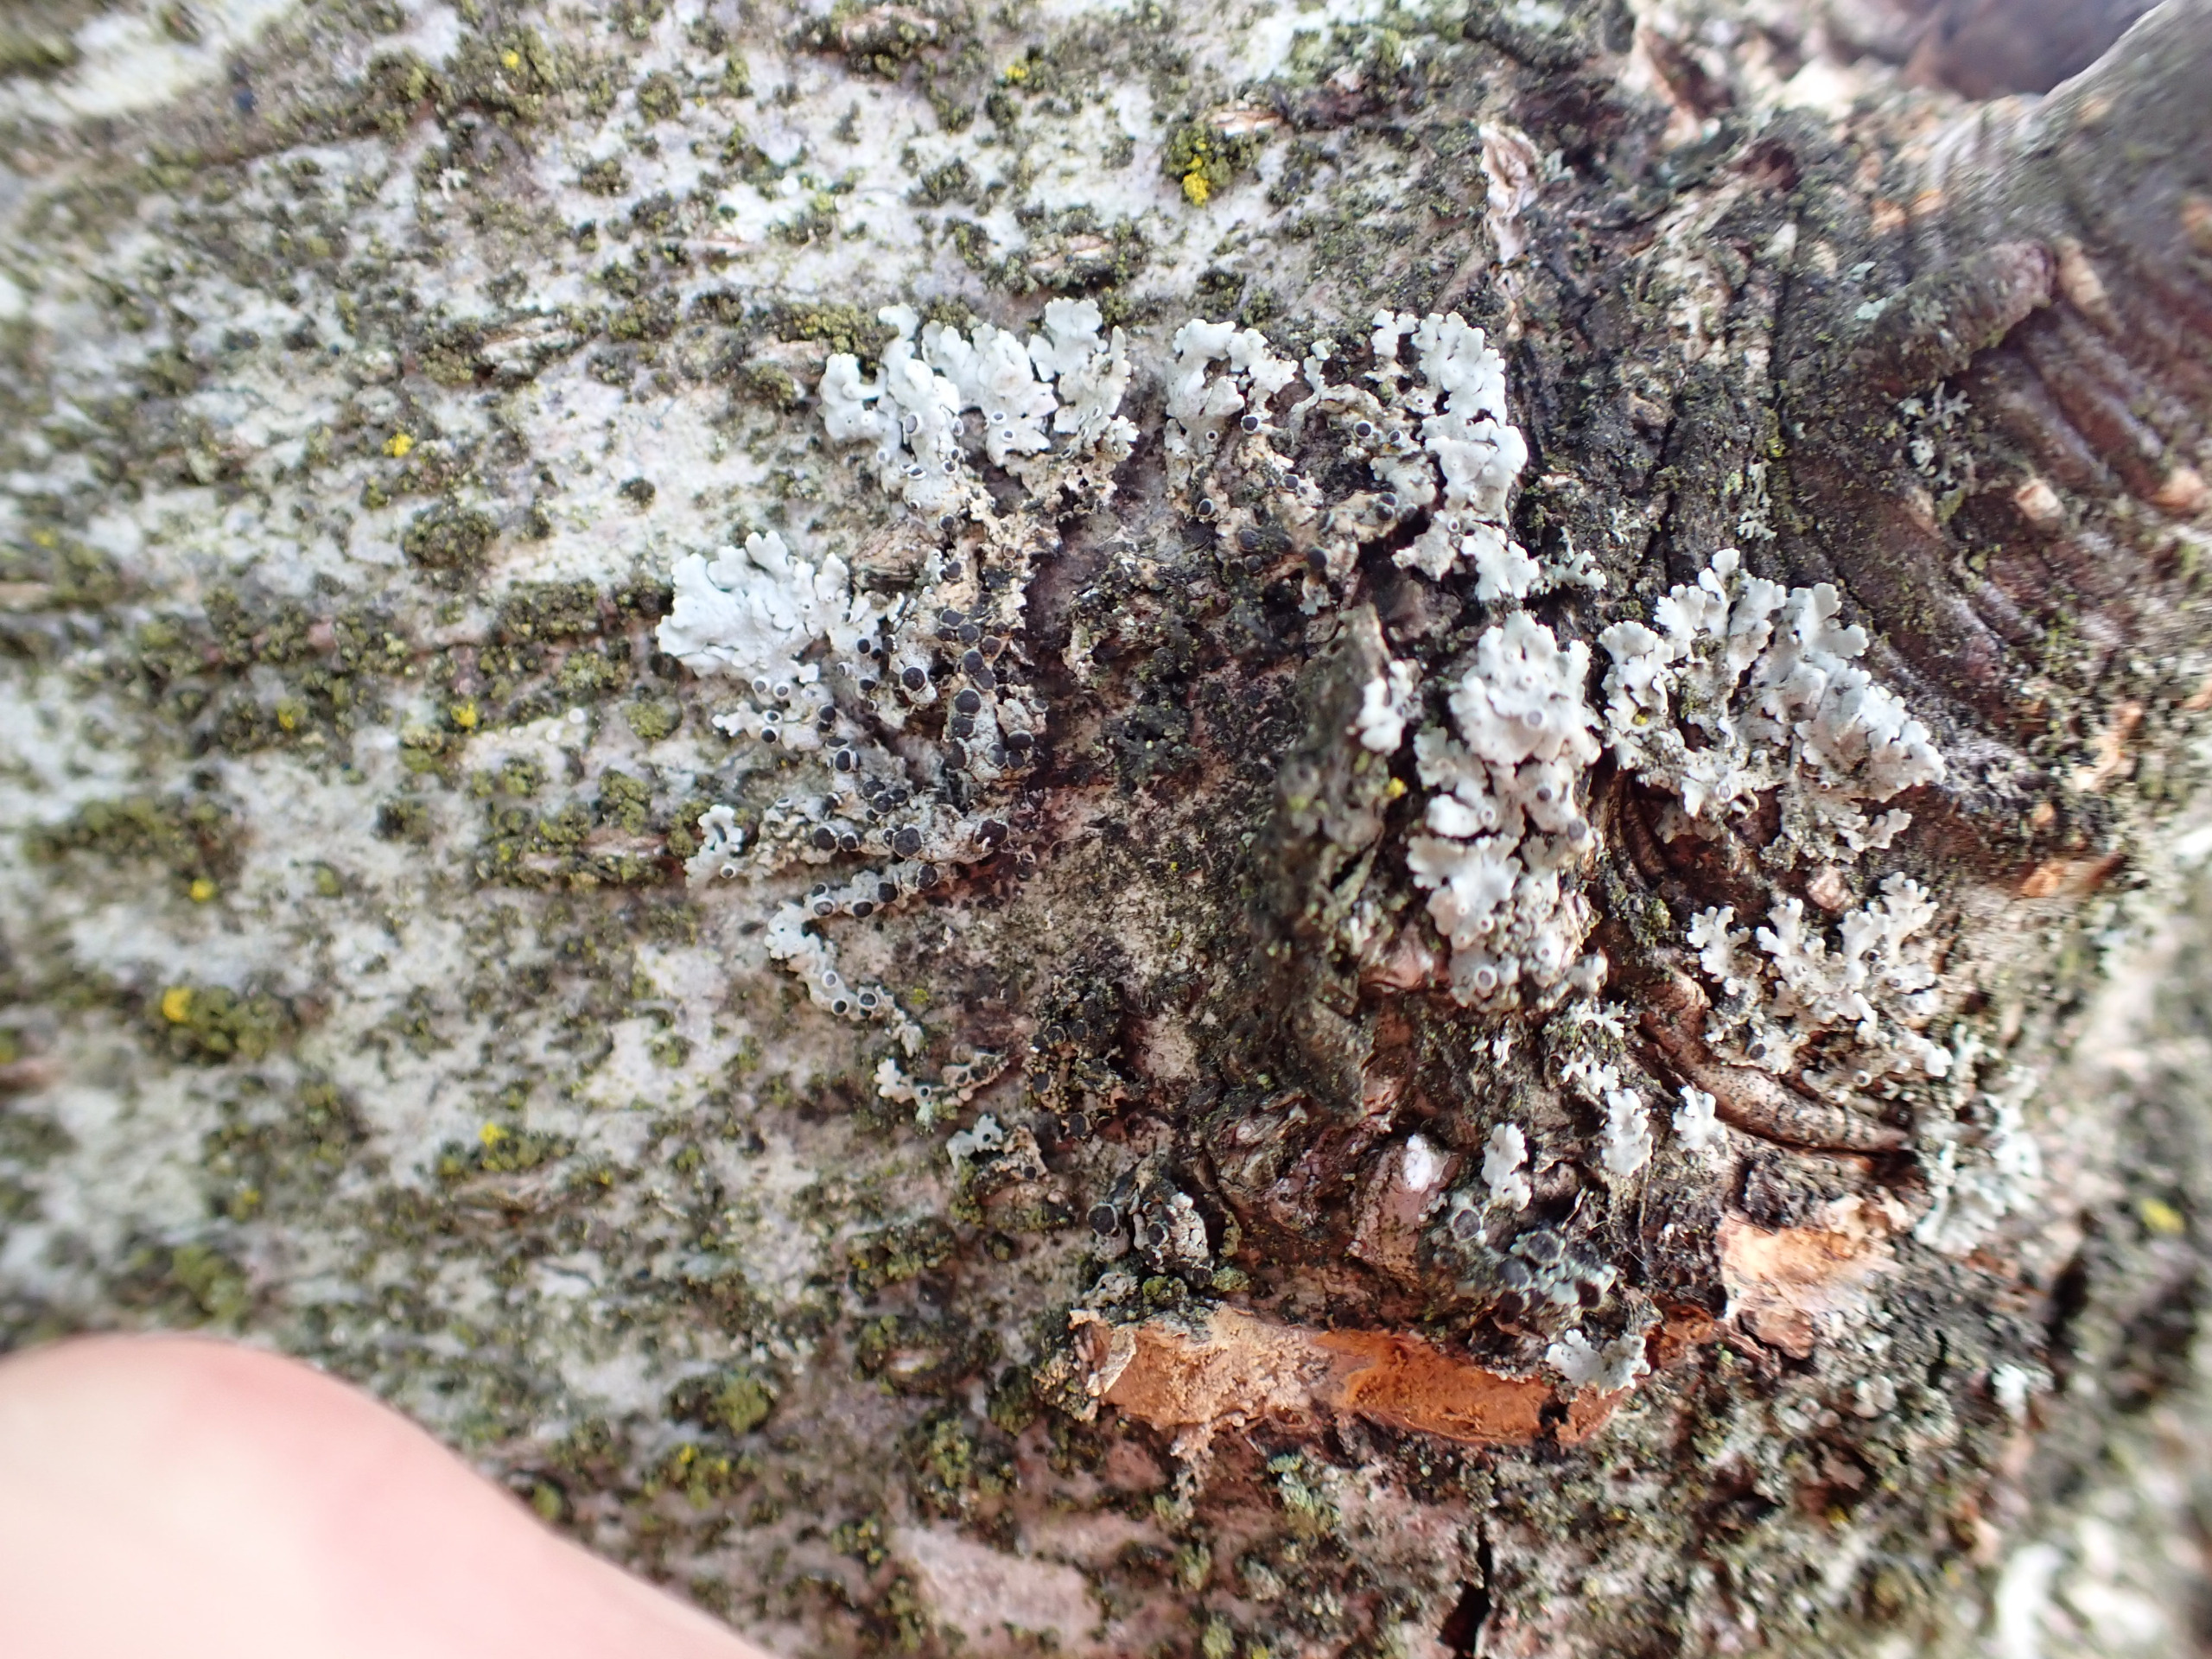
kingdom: Fungi
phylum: Ascomycota
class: Lecanoromycetes
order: Caliciales
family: Physciaceae
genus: Physcia
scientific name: Physcia aipolia
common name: Hvidprikket rosetlav
